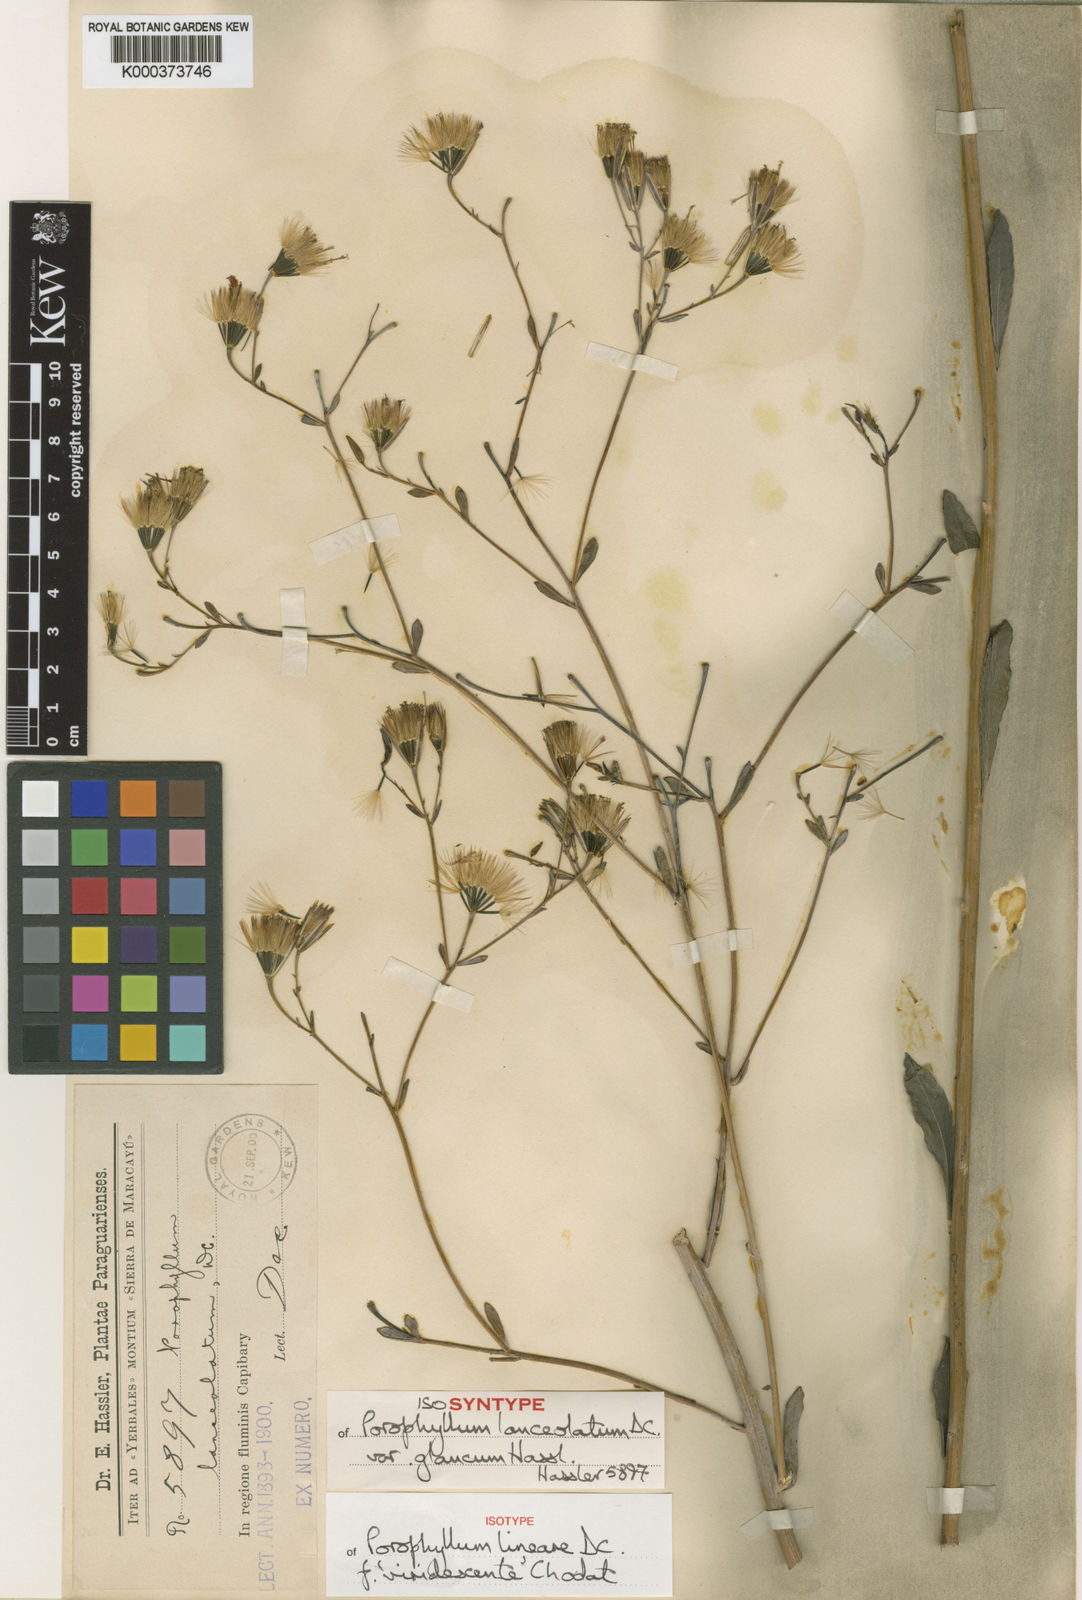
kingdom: Plantae
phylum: Tracheophyta
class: Magnoliopsida
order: Asterales
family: Asteraceae
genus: Porophyllum
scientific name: Porophyllum lanceolatum
